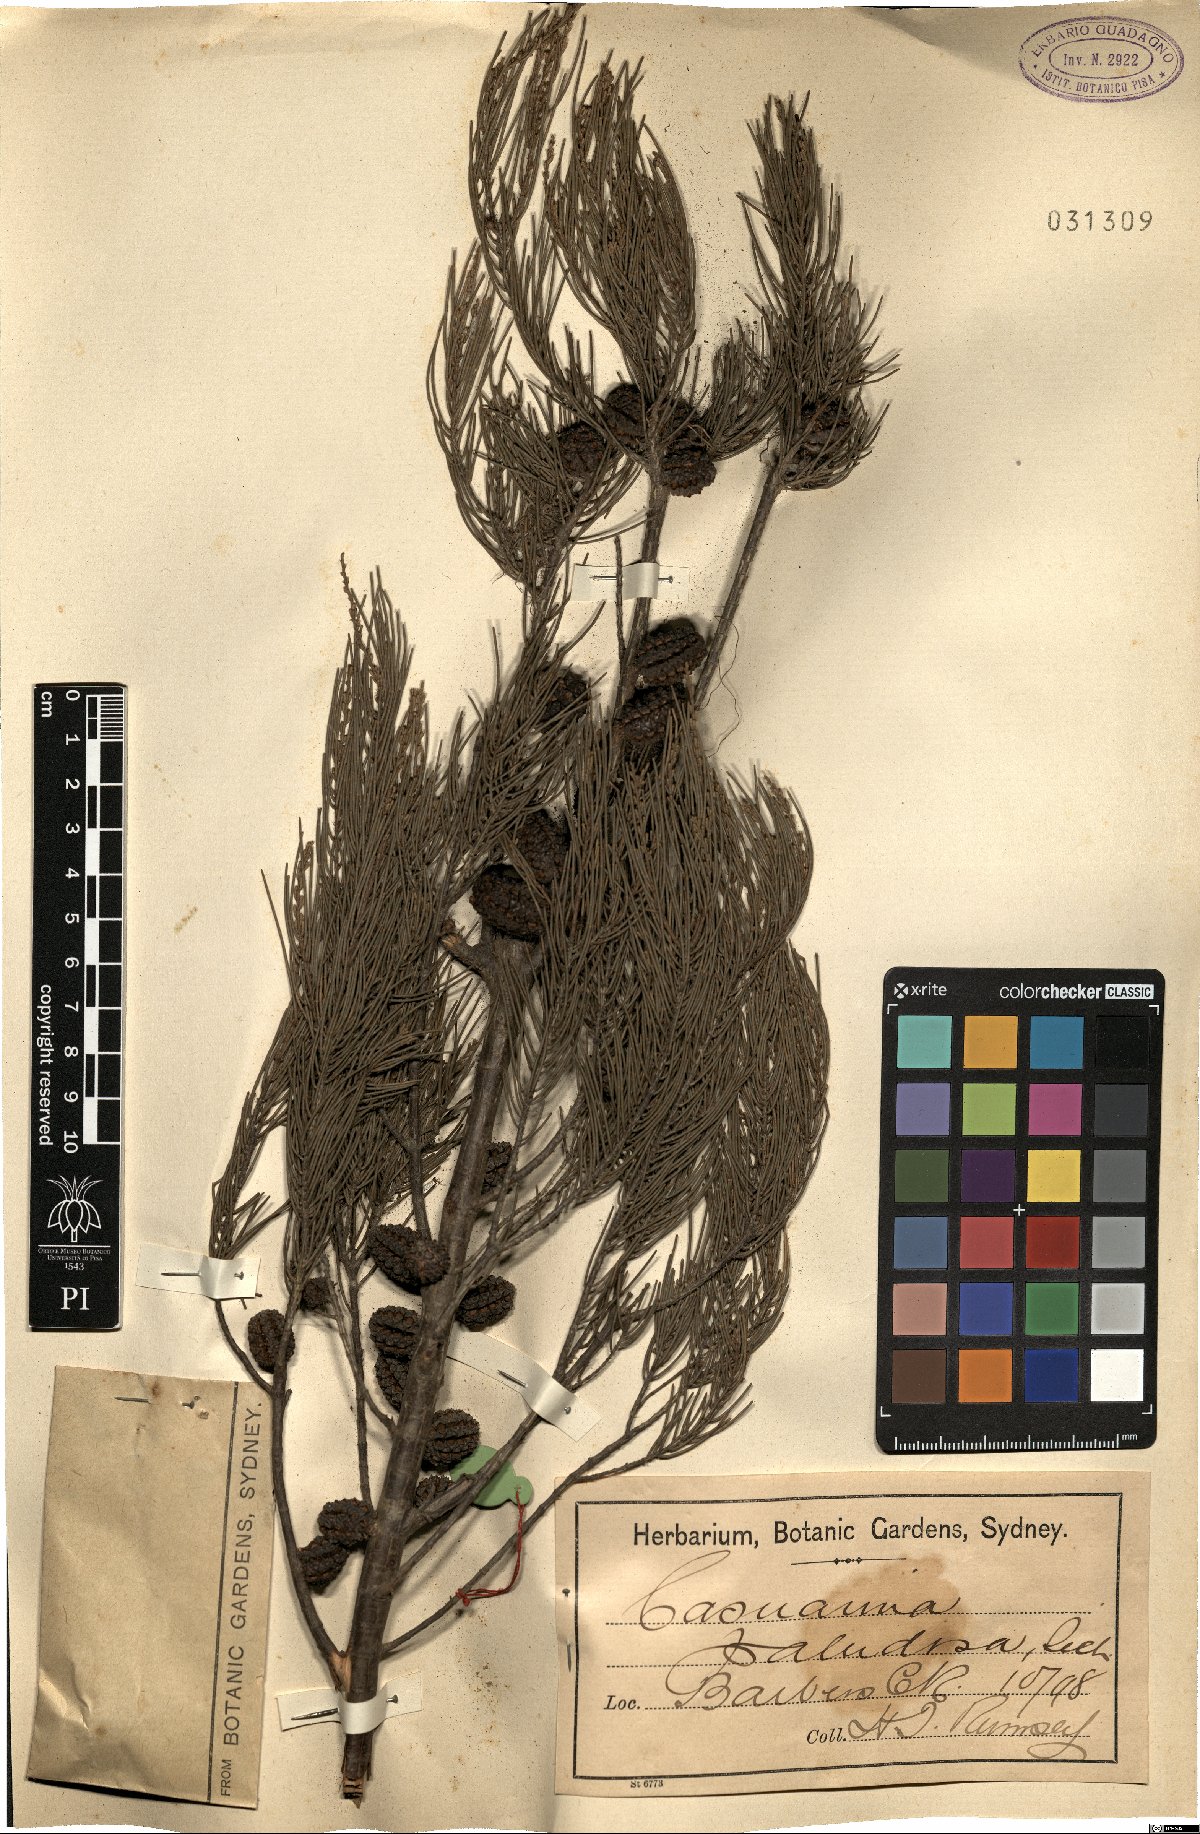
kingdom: Plantae
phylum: Tracheophyta
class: Magnoliopsida
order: Fagales
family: Casuarinaceae
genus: Allocasuarina
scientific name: Allocasuarina paludosa
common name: Scrub she-oak
